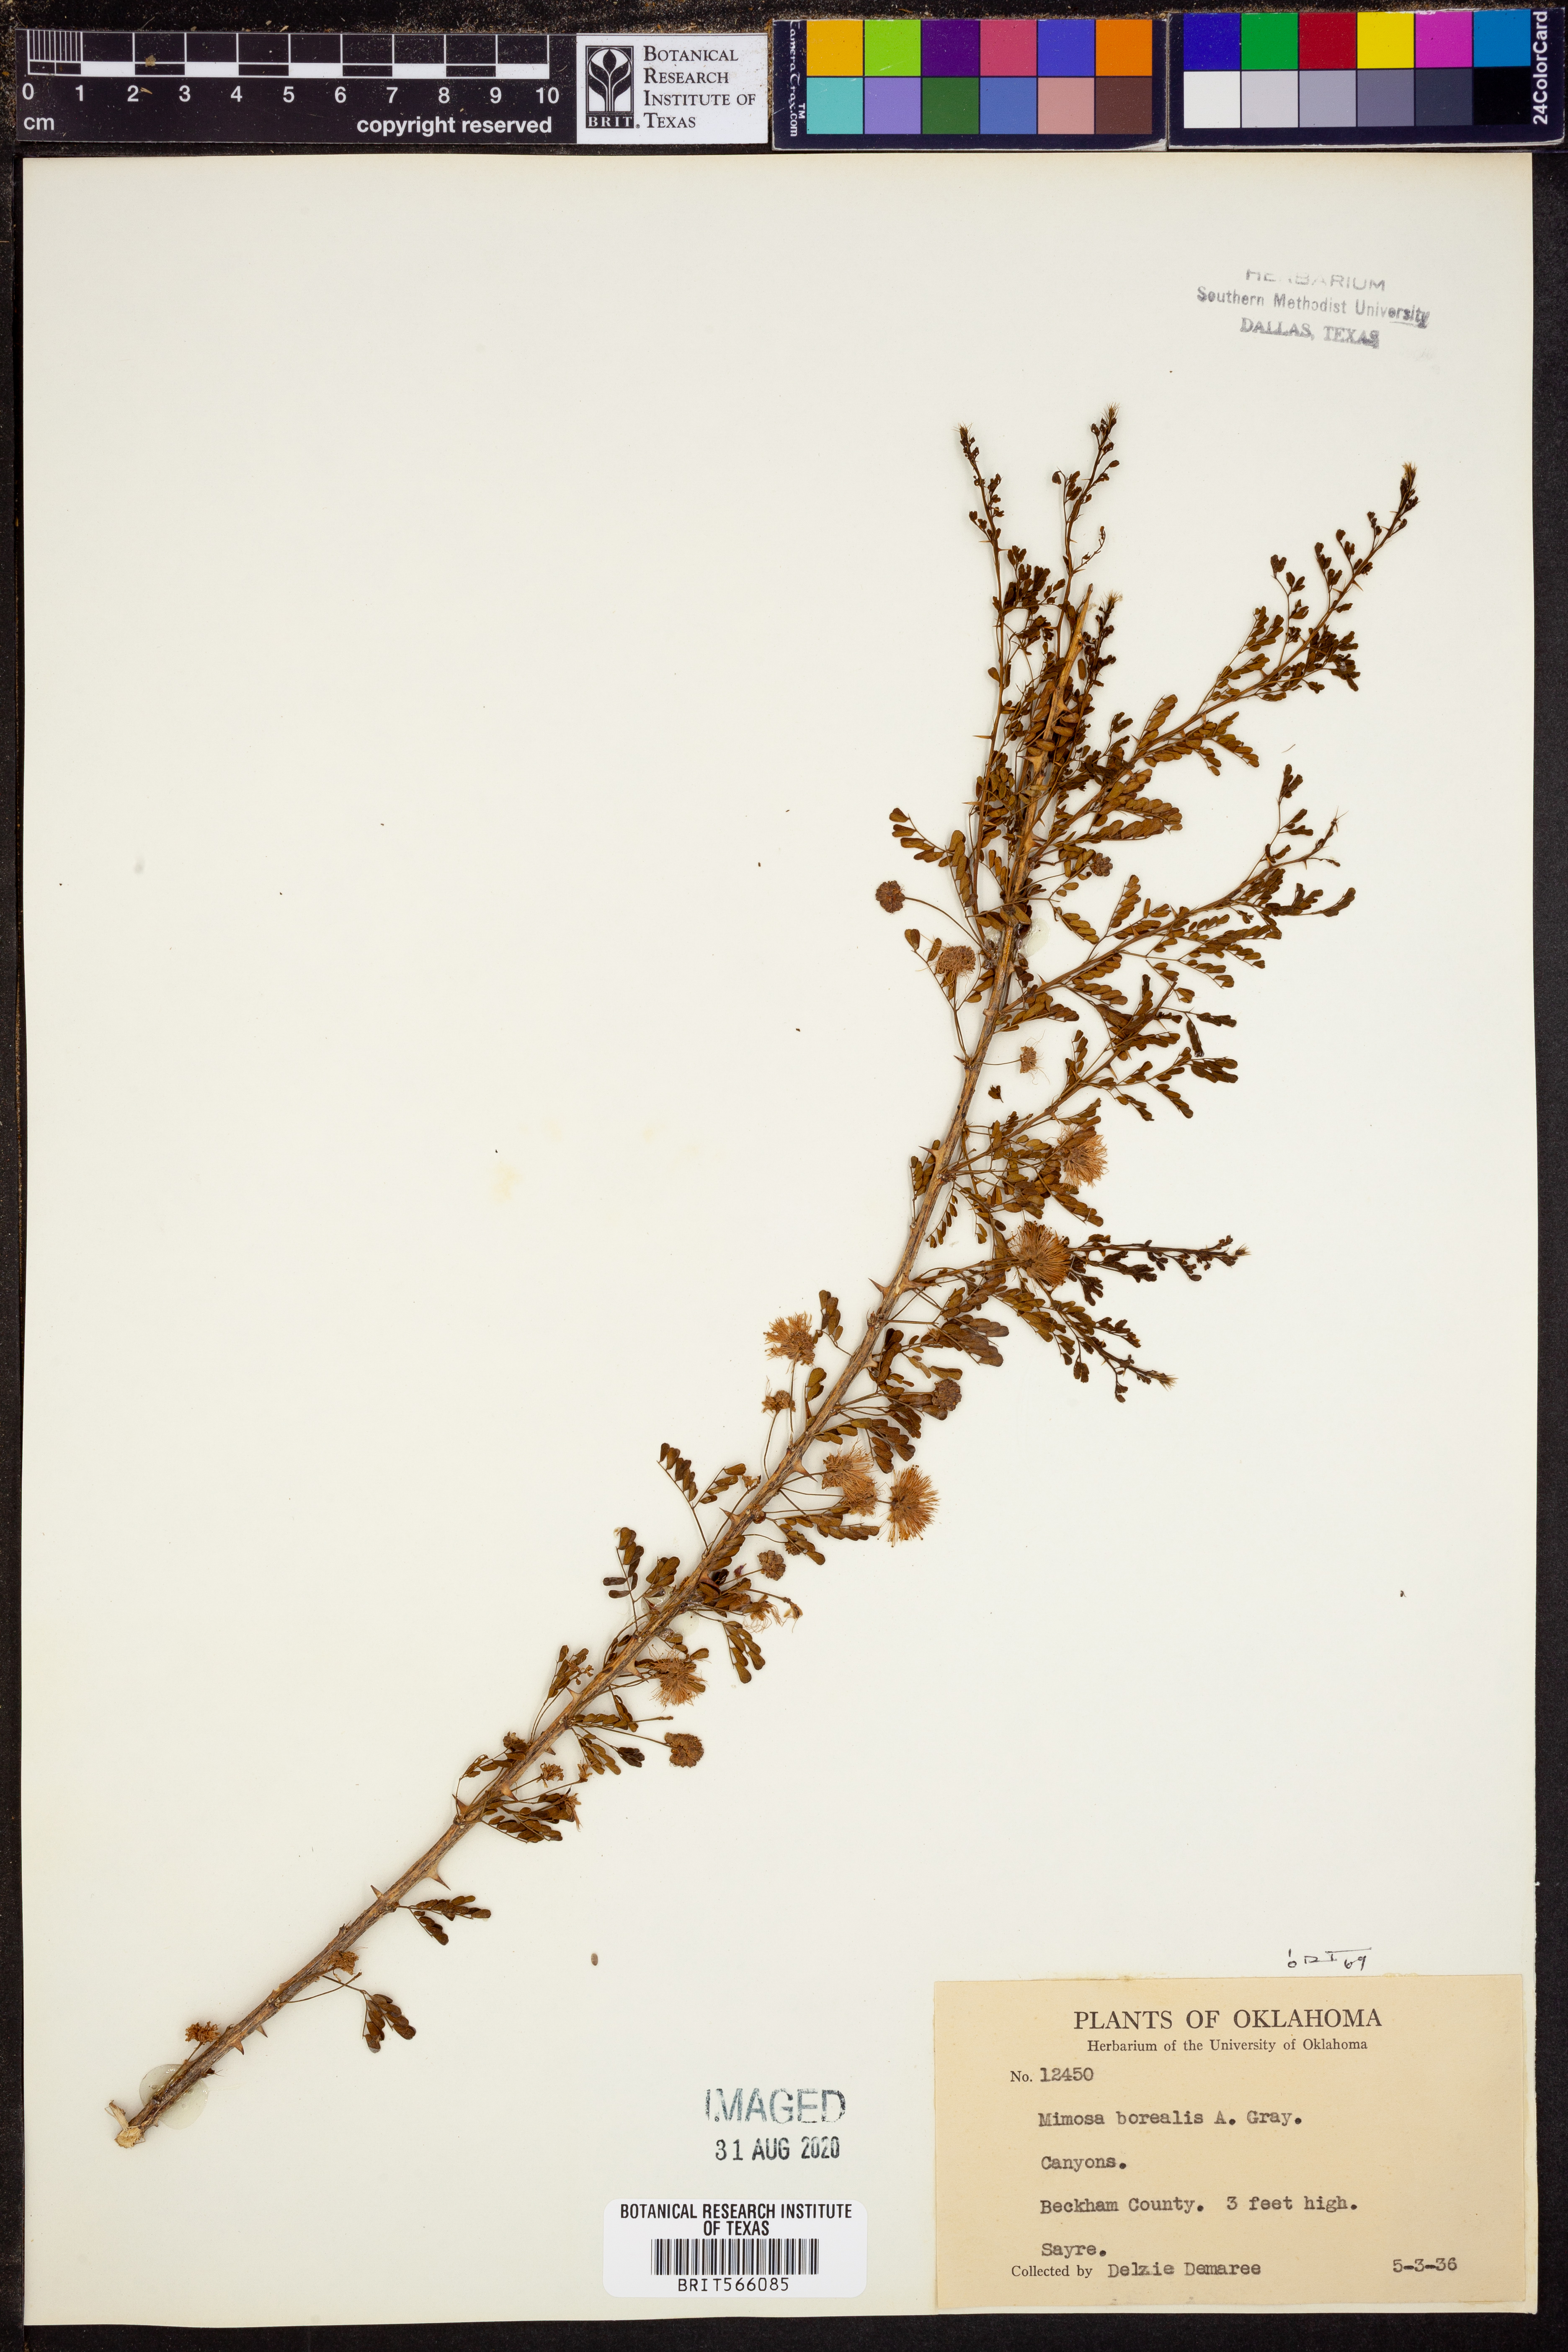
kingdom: Plantae
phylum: Tracheophyta
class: Magnoliopsida
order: Fabales
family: Fabaceae
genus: Mimosa
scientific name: Mimosa borealis
